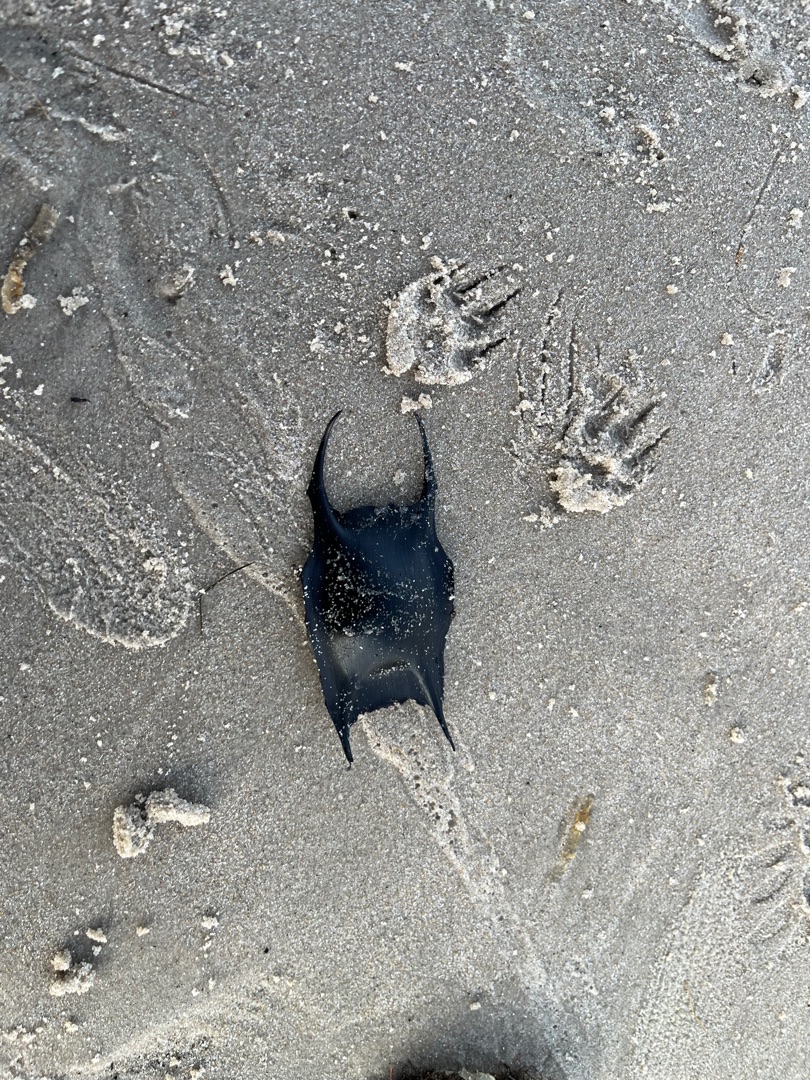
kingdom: Animalia
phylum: Chordata
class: Elasmobranchii
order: Rajiformes
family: Rajidae
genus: Raja
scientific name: Raja clavata
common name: Sømrokke
